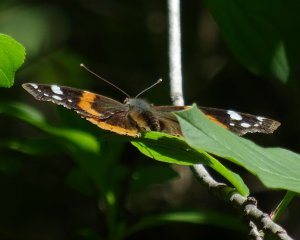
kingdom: Animalia
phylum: Arthropoda
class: Insecta
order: Lepidoptera
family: Nymphalidae
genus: Vanessa
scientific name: Vanessa atalanta
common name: Red Admiral
